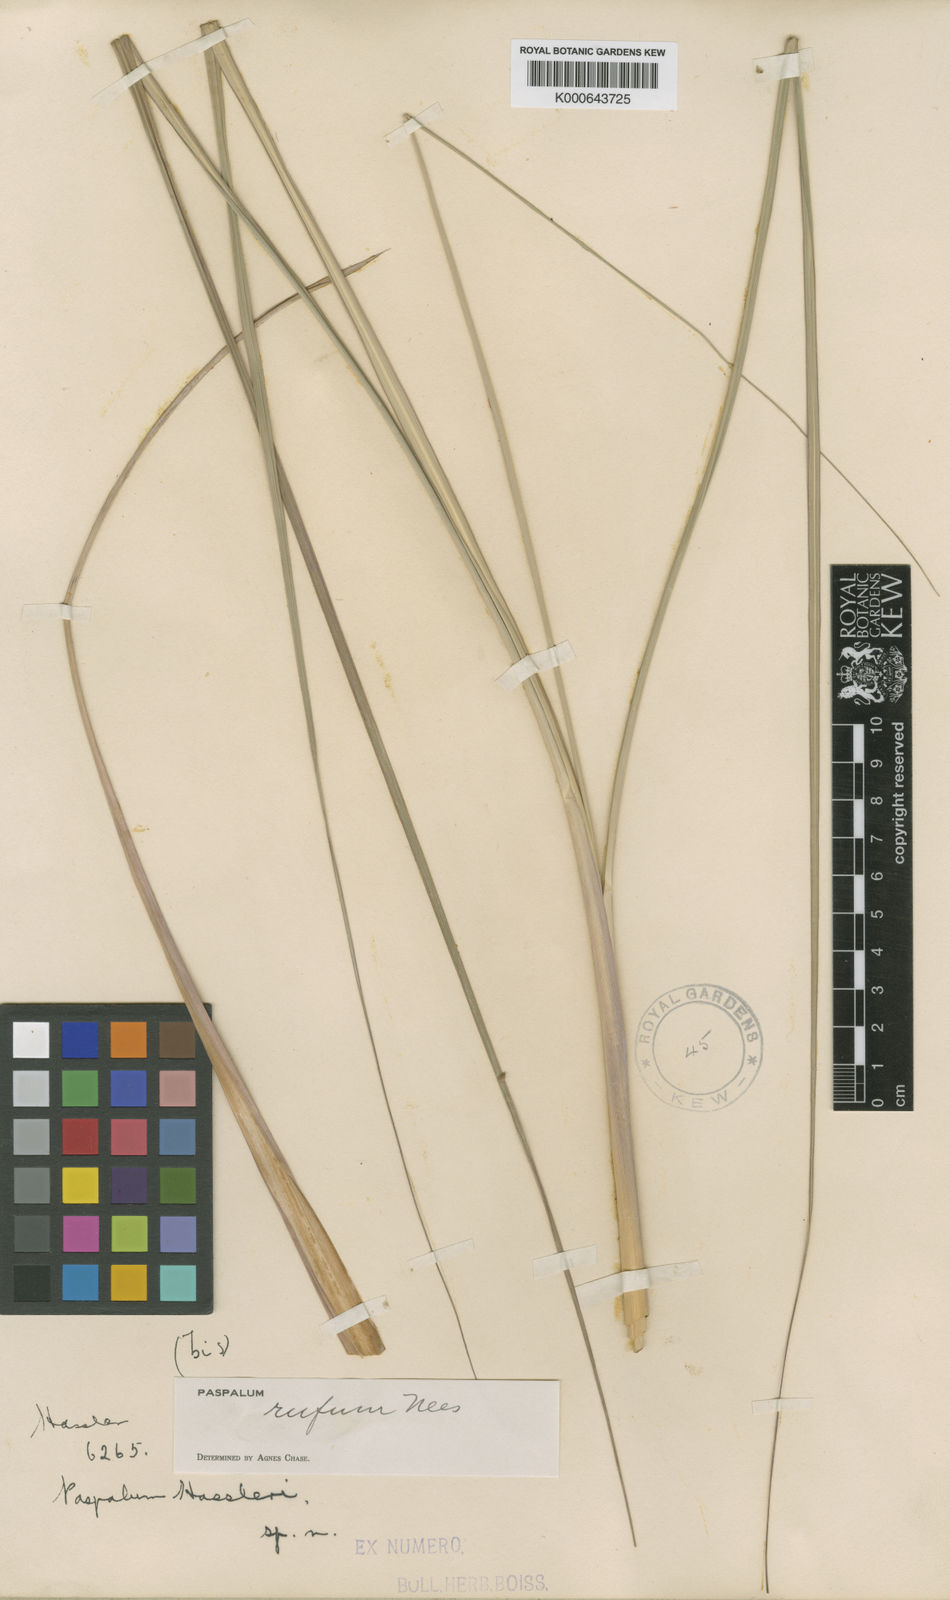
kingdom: Plantae
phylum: Tracheophyta
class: Liliopsida
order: Poales
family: Poaceae
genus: Paspalum
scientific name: Paspalum rufum
